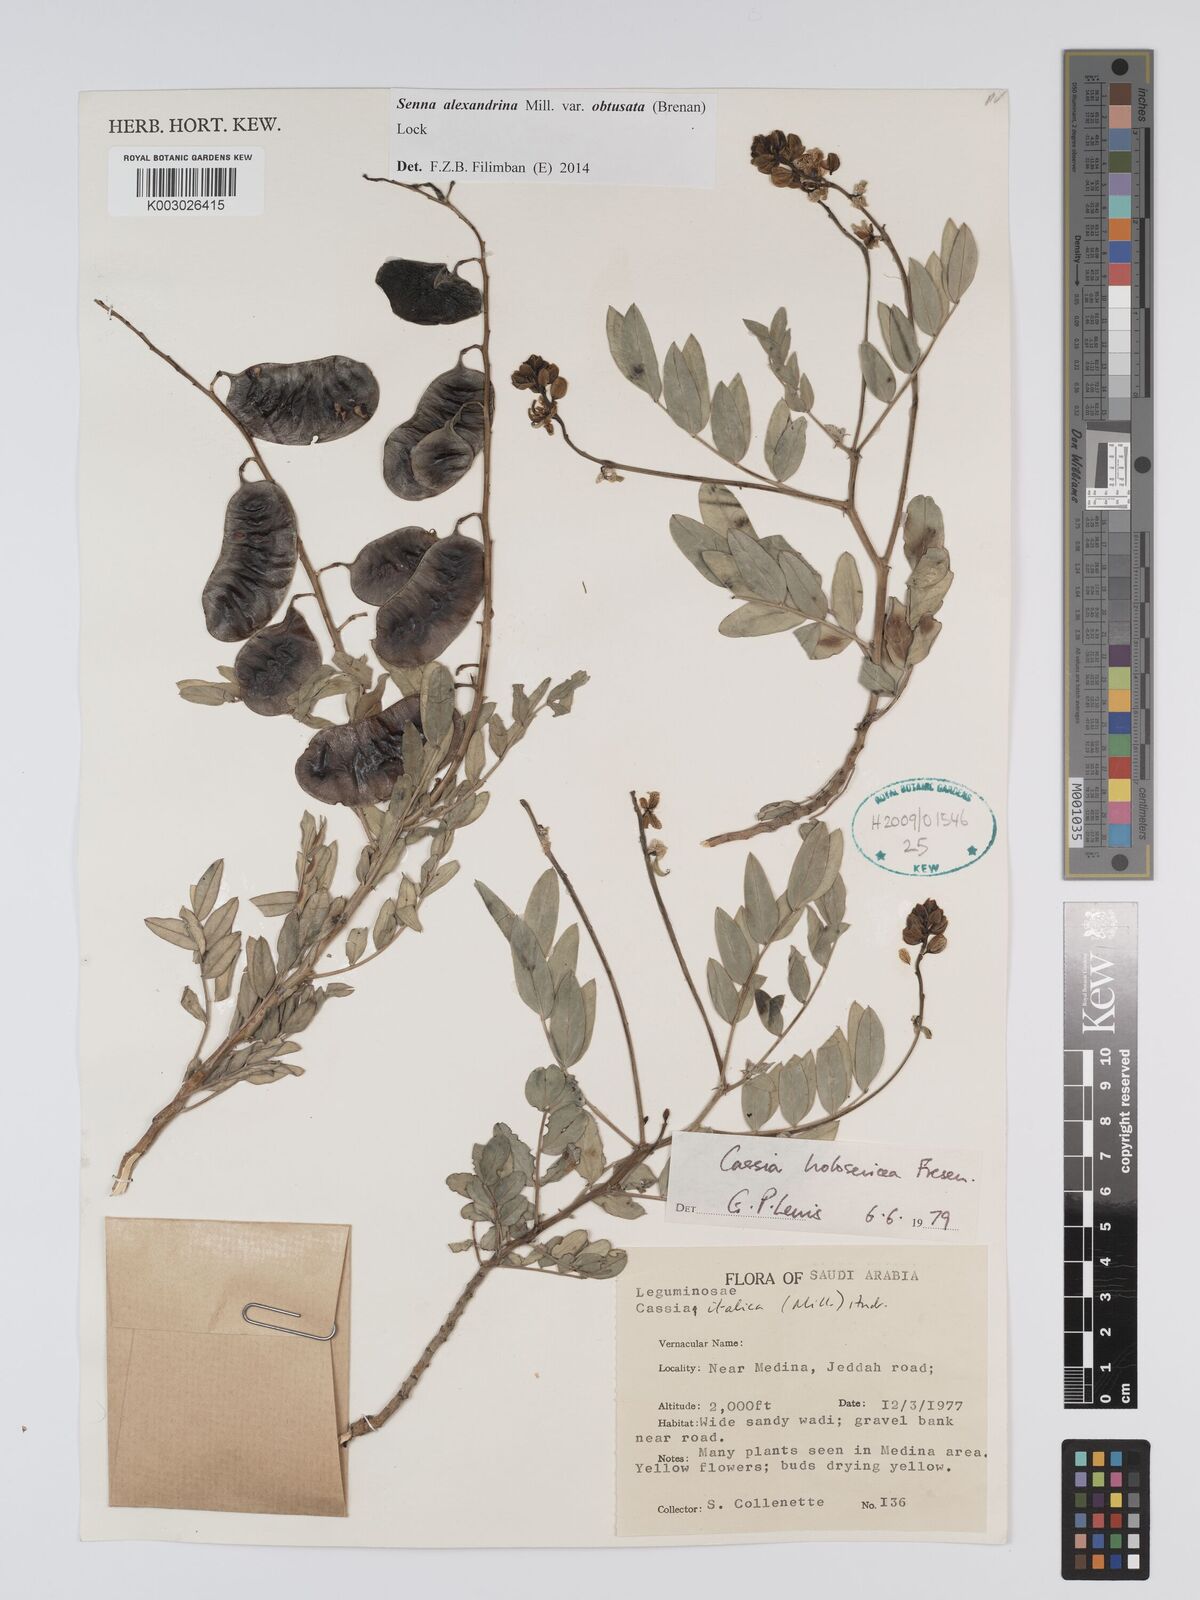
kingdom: Plantae
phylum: Tracheophyta
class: Magnoliopsida
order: Fabales
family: Fabaceae
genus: Senna
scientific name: Senna alexandrina
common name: True senna
